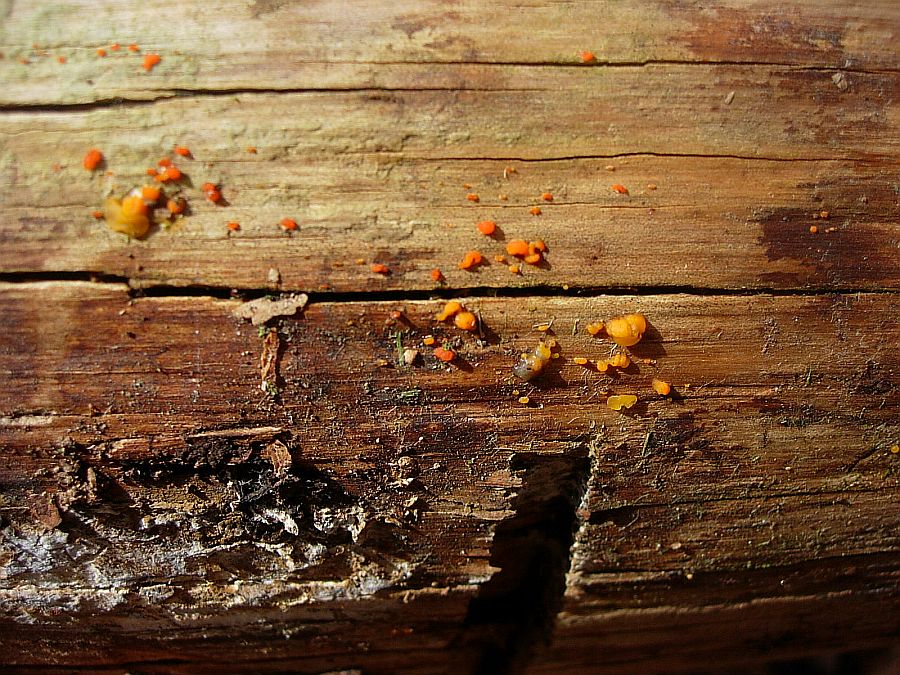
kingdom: Fungi
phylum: Basidiomycota
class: Dacrymycetes
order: Dacrymycetales
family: Dacrymycetaceae
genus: Dacrymyces
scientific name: Dacrymyces stillatus
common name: almindelig tåresvamp
